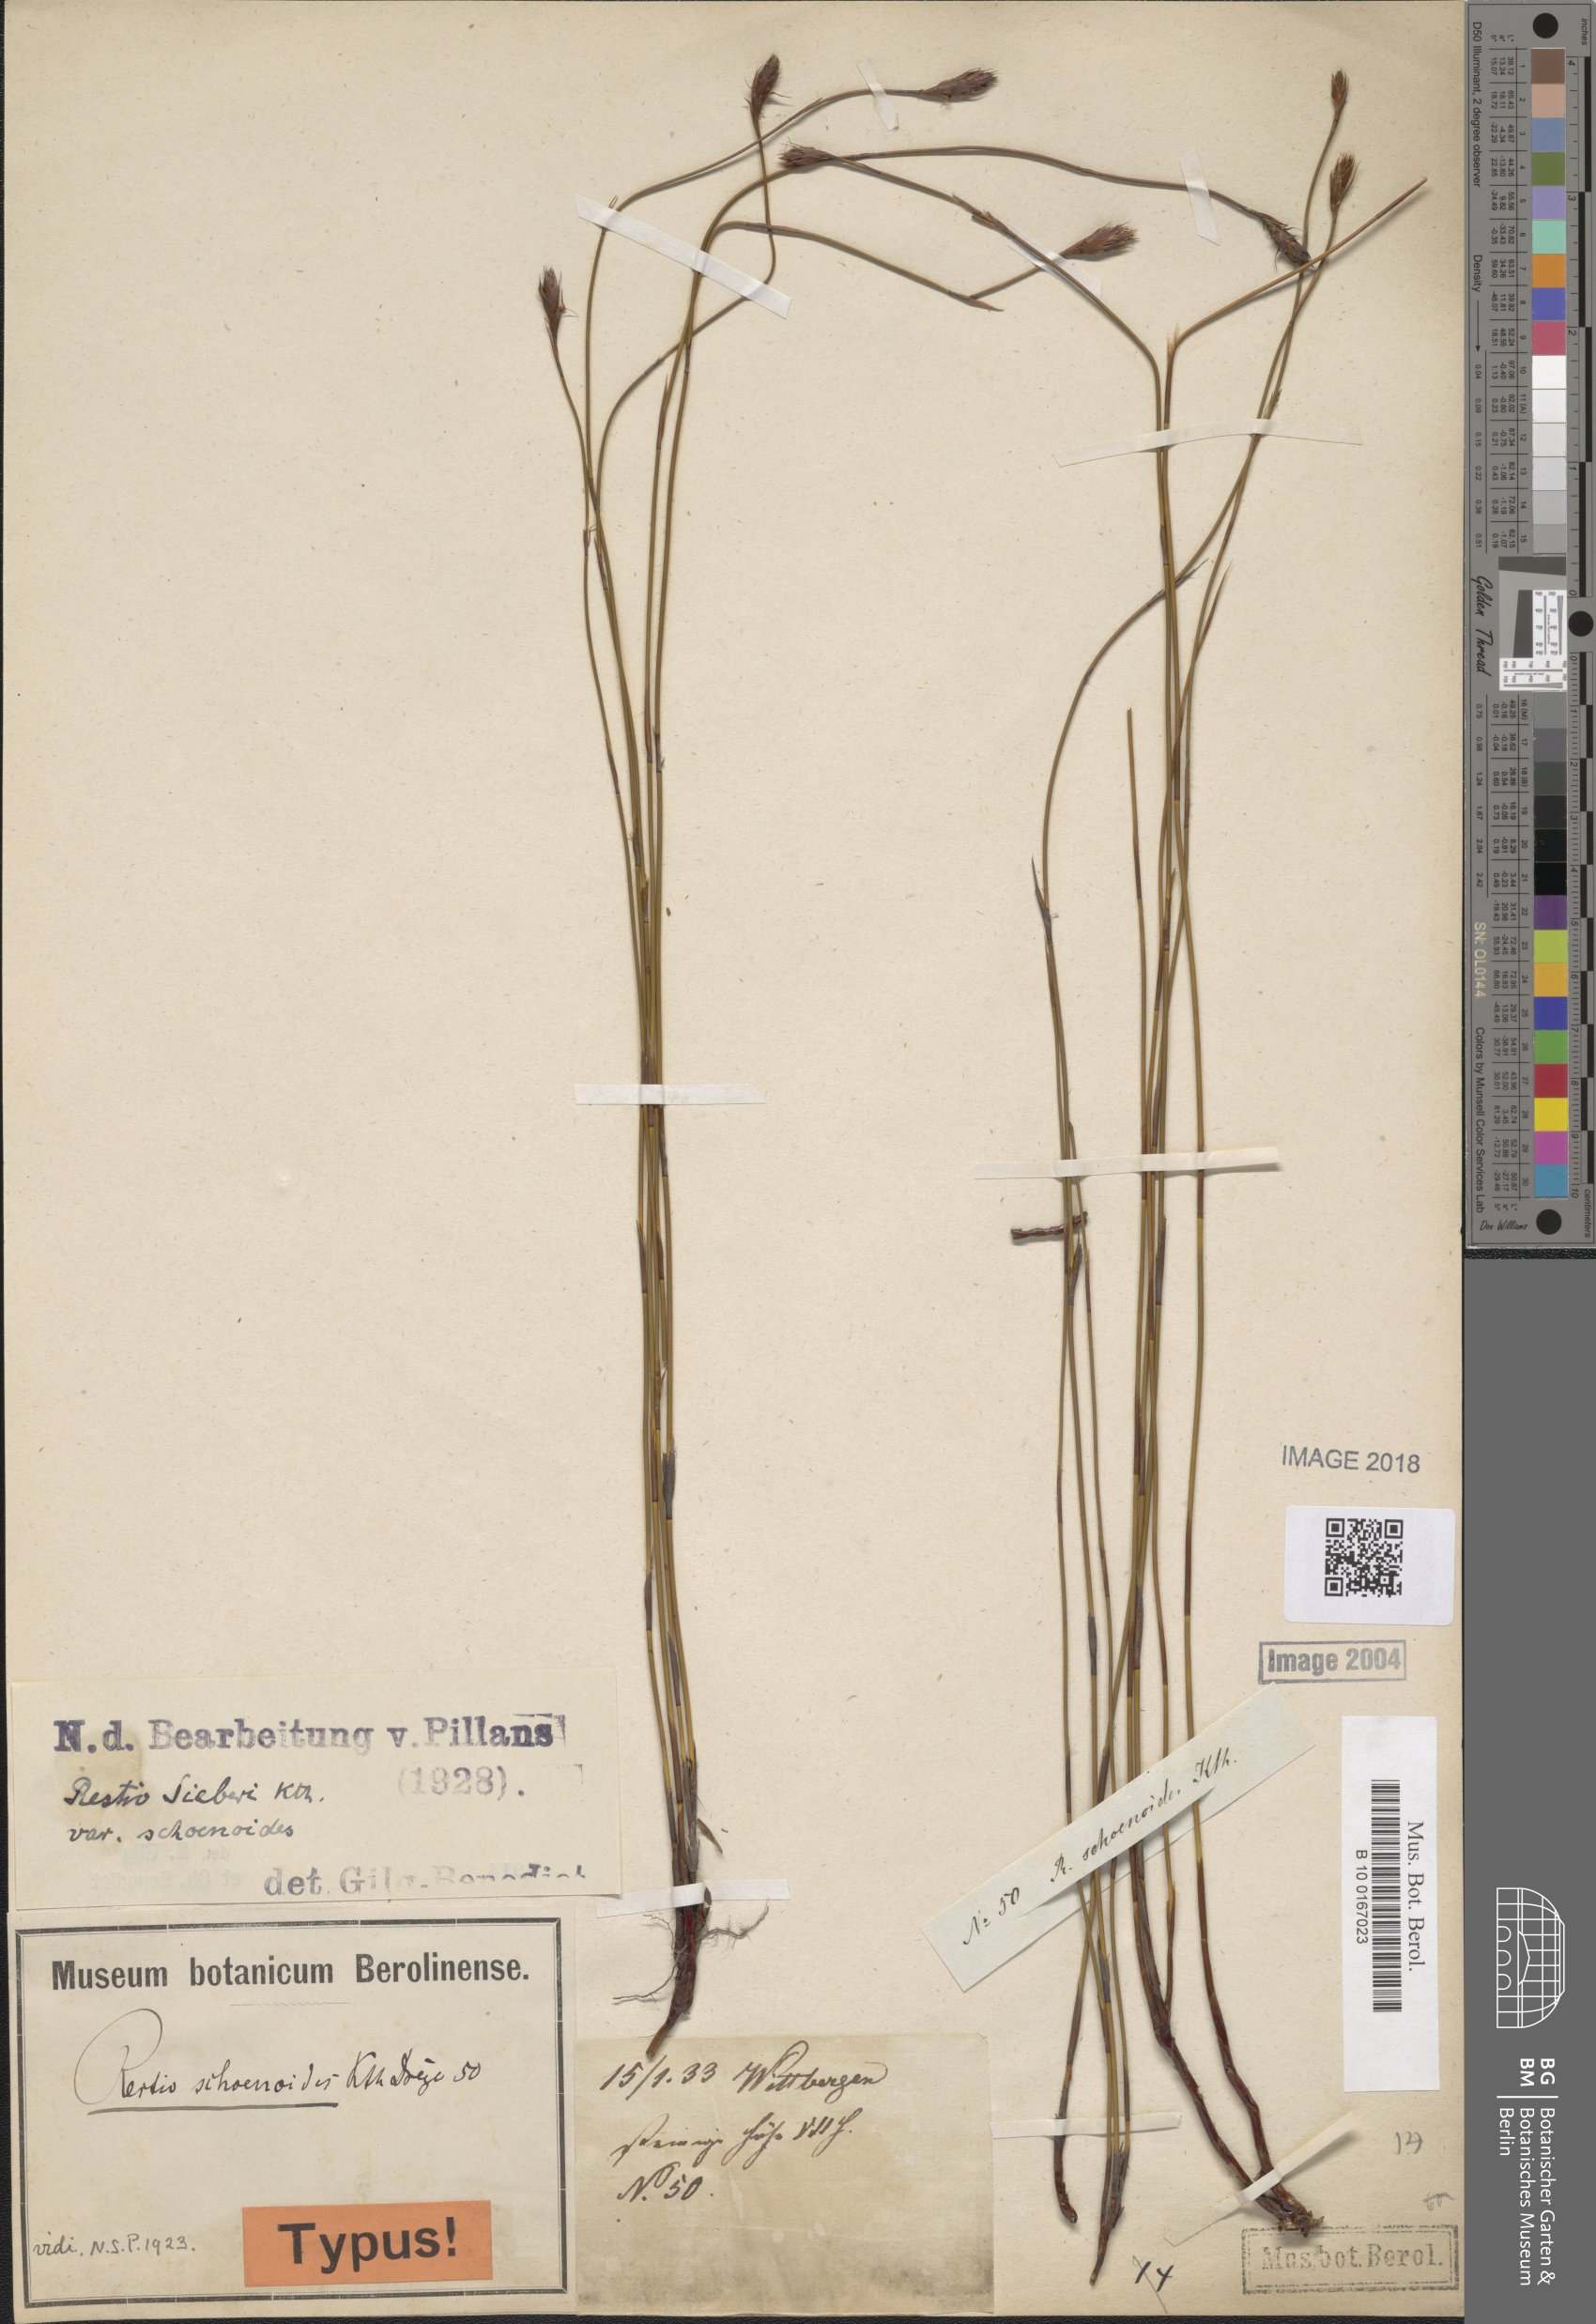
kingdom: Plantae
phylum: Tracheophyta
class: Liliopsida
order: Poales
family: Restionaceae
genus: Restio
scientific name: Restio schoenoides
